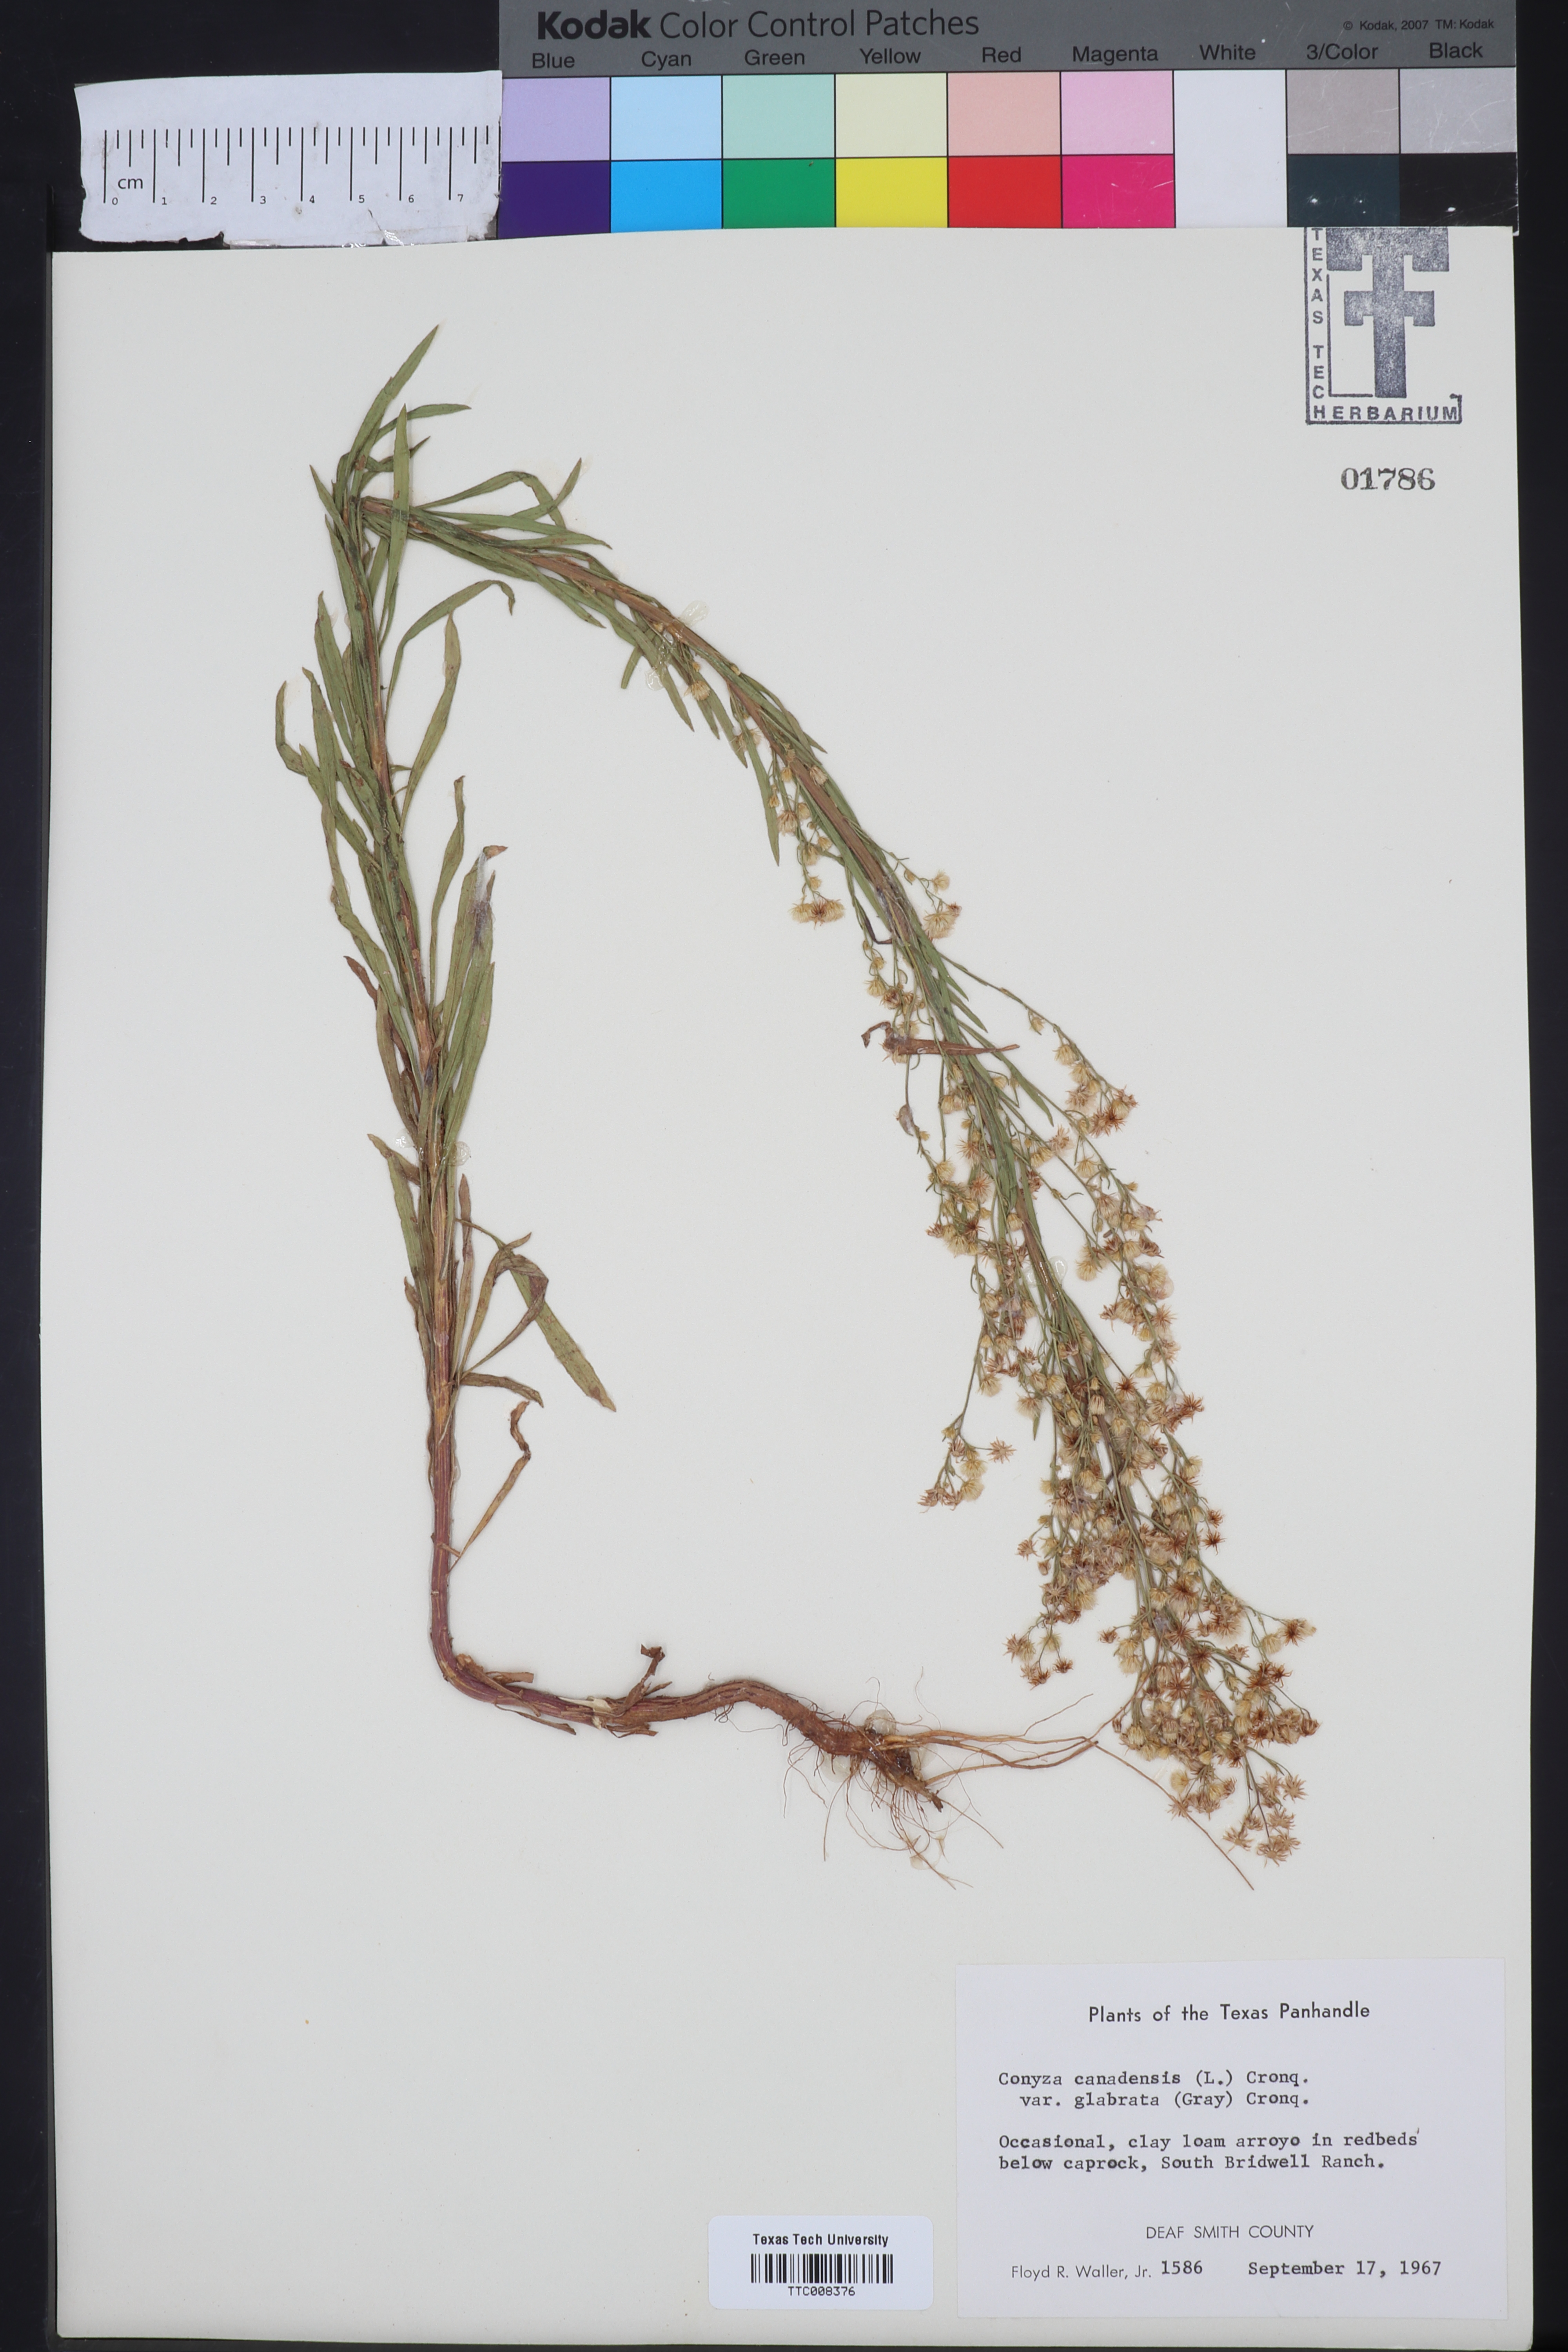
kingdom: Plantae
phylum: Tracheophyta
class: Magnoliopsida
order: Asterales
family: Asteraceae
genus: Erigeron
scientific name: Erigeron canadensis
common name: Canadian fleabane
